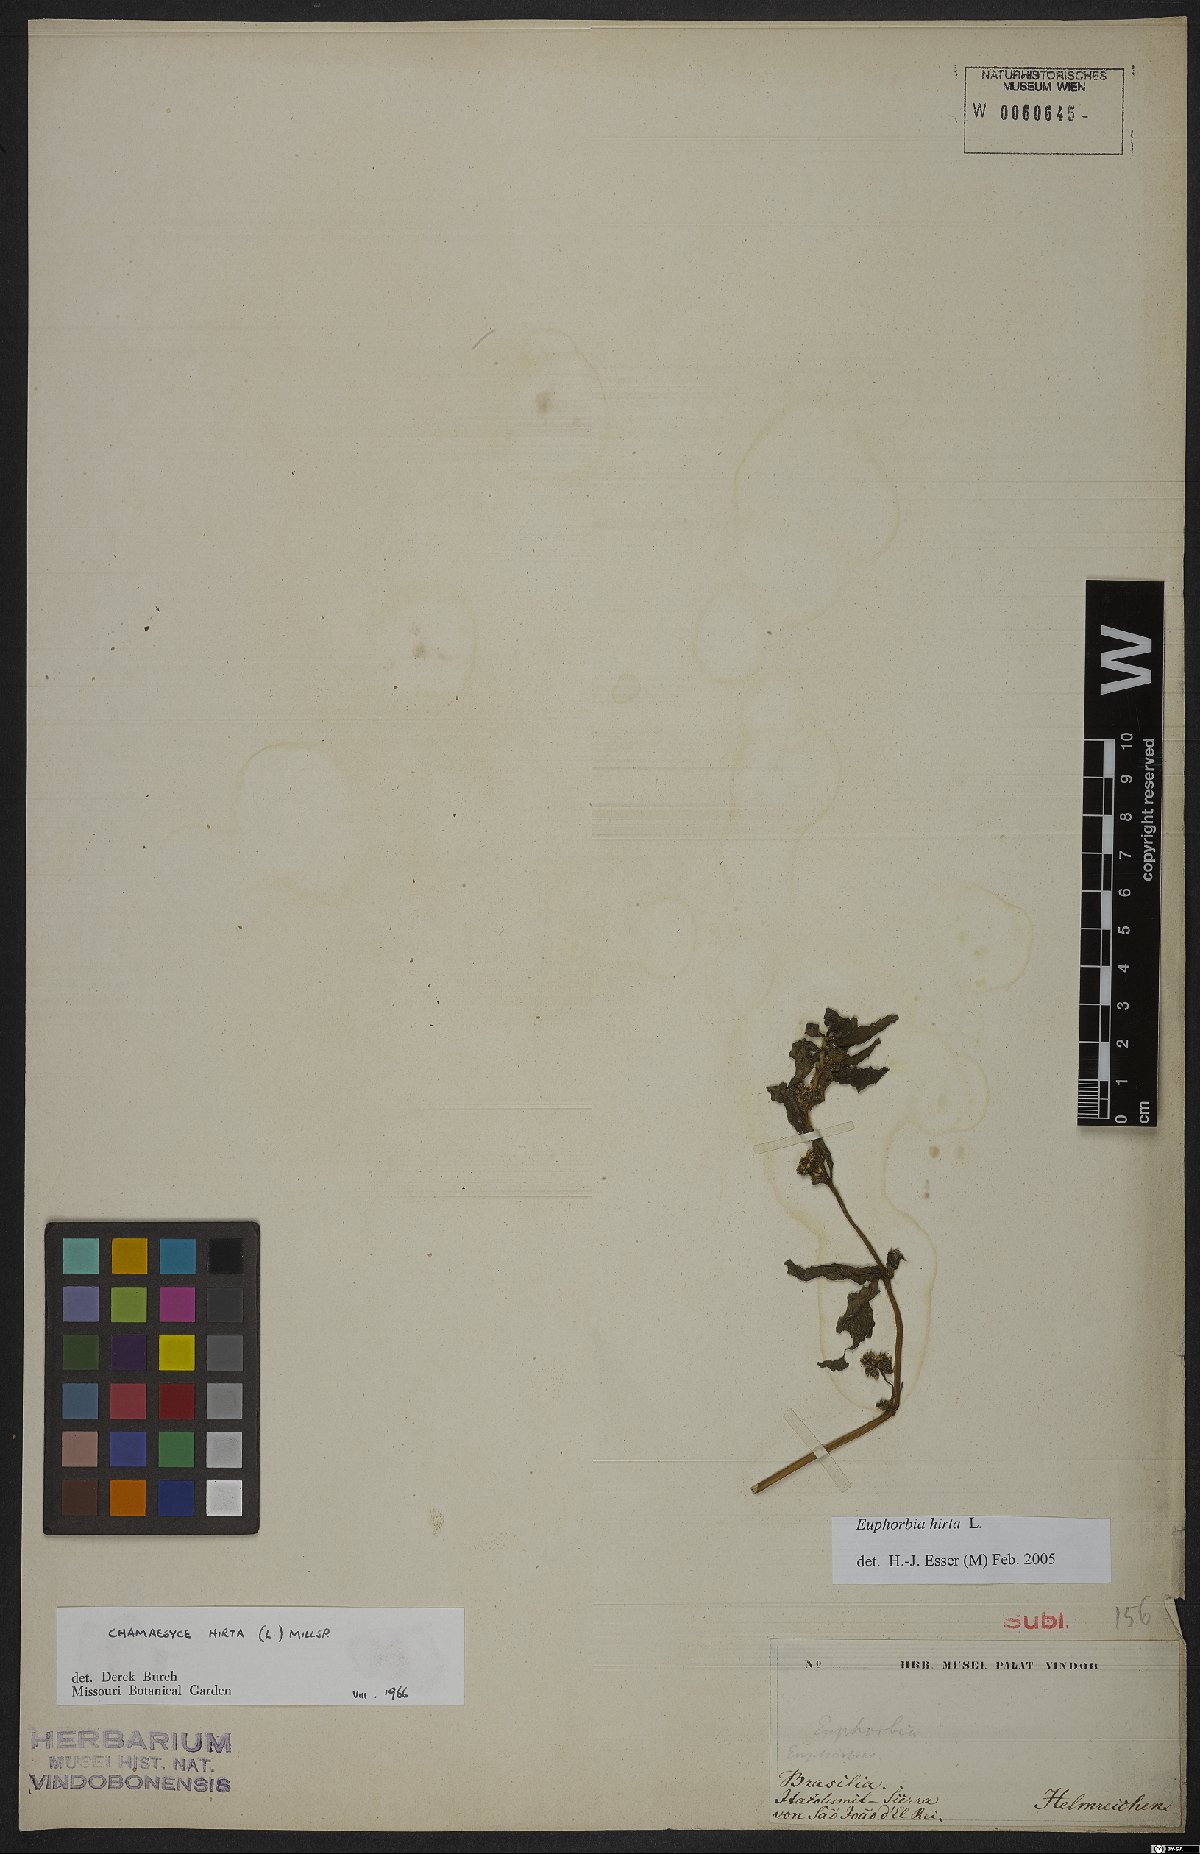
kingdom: Plantae
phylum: Tracheophyta
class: Magnoliopsida
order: Malpighiales
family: Euphorbiaceae
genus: Euphorbia
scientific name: Euphorbia hirta
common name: Pillpod sandmat
